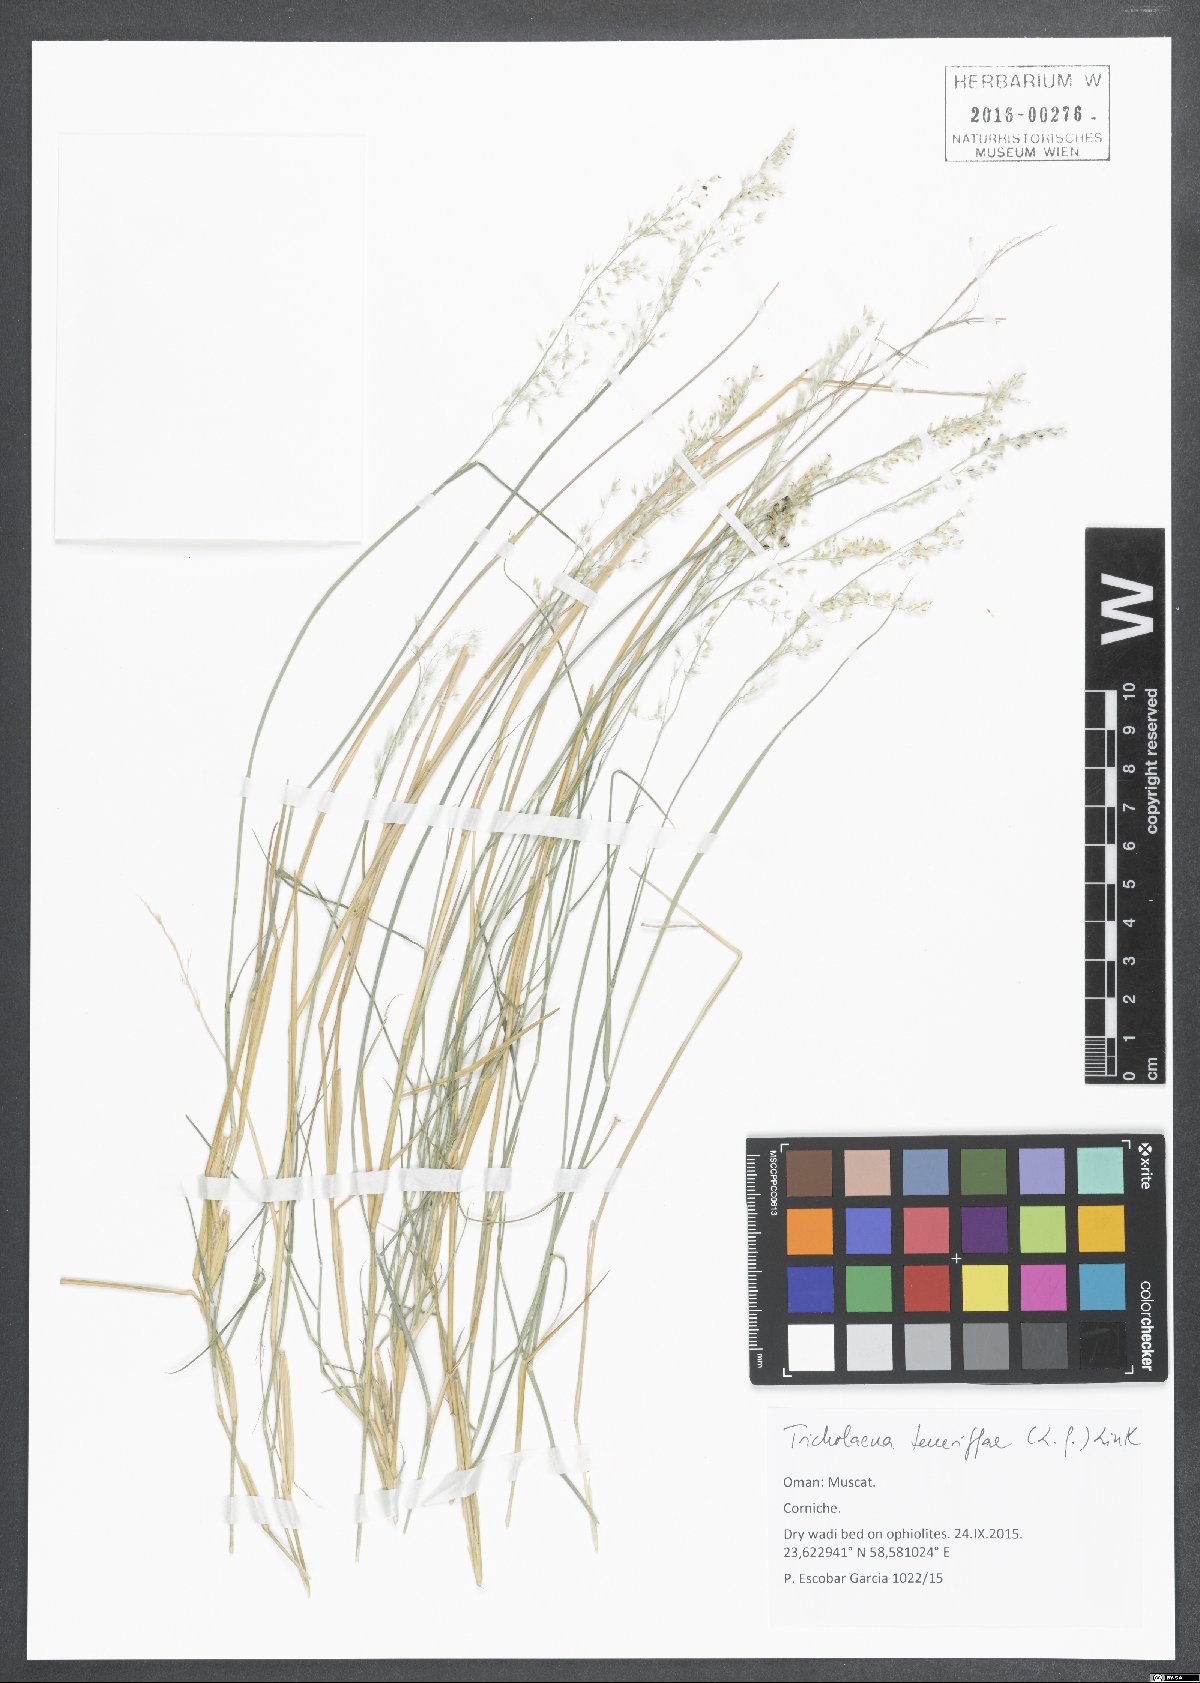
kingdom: Plantae
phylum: Tracheophyta
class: Liliopsida
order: Poales
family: Poaceae
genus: Tricholaena
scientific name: Tricholaena teneriffae
